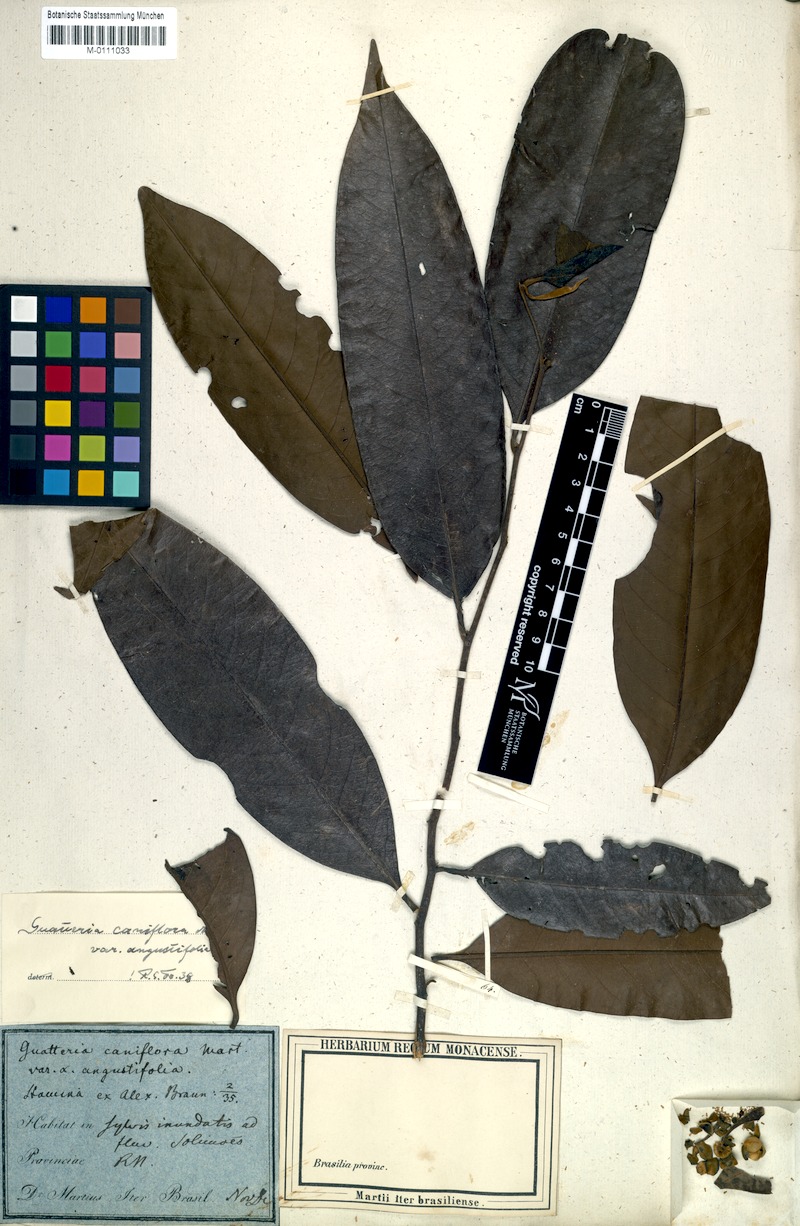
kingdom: Plantae
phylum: Tracheophyta
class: Magnoliopsida
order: Magnoliales
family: Annonaceae
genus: Guatteria
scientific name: Guatteria caniflora
